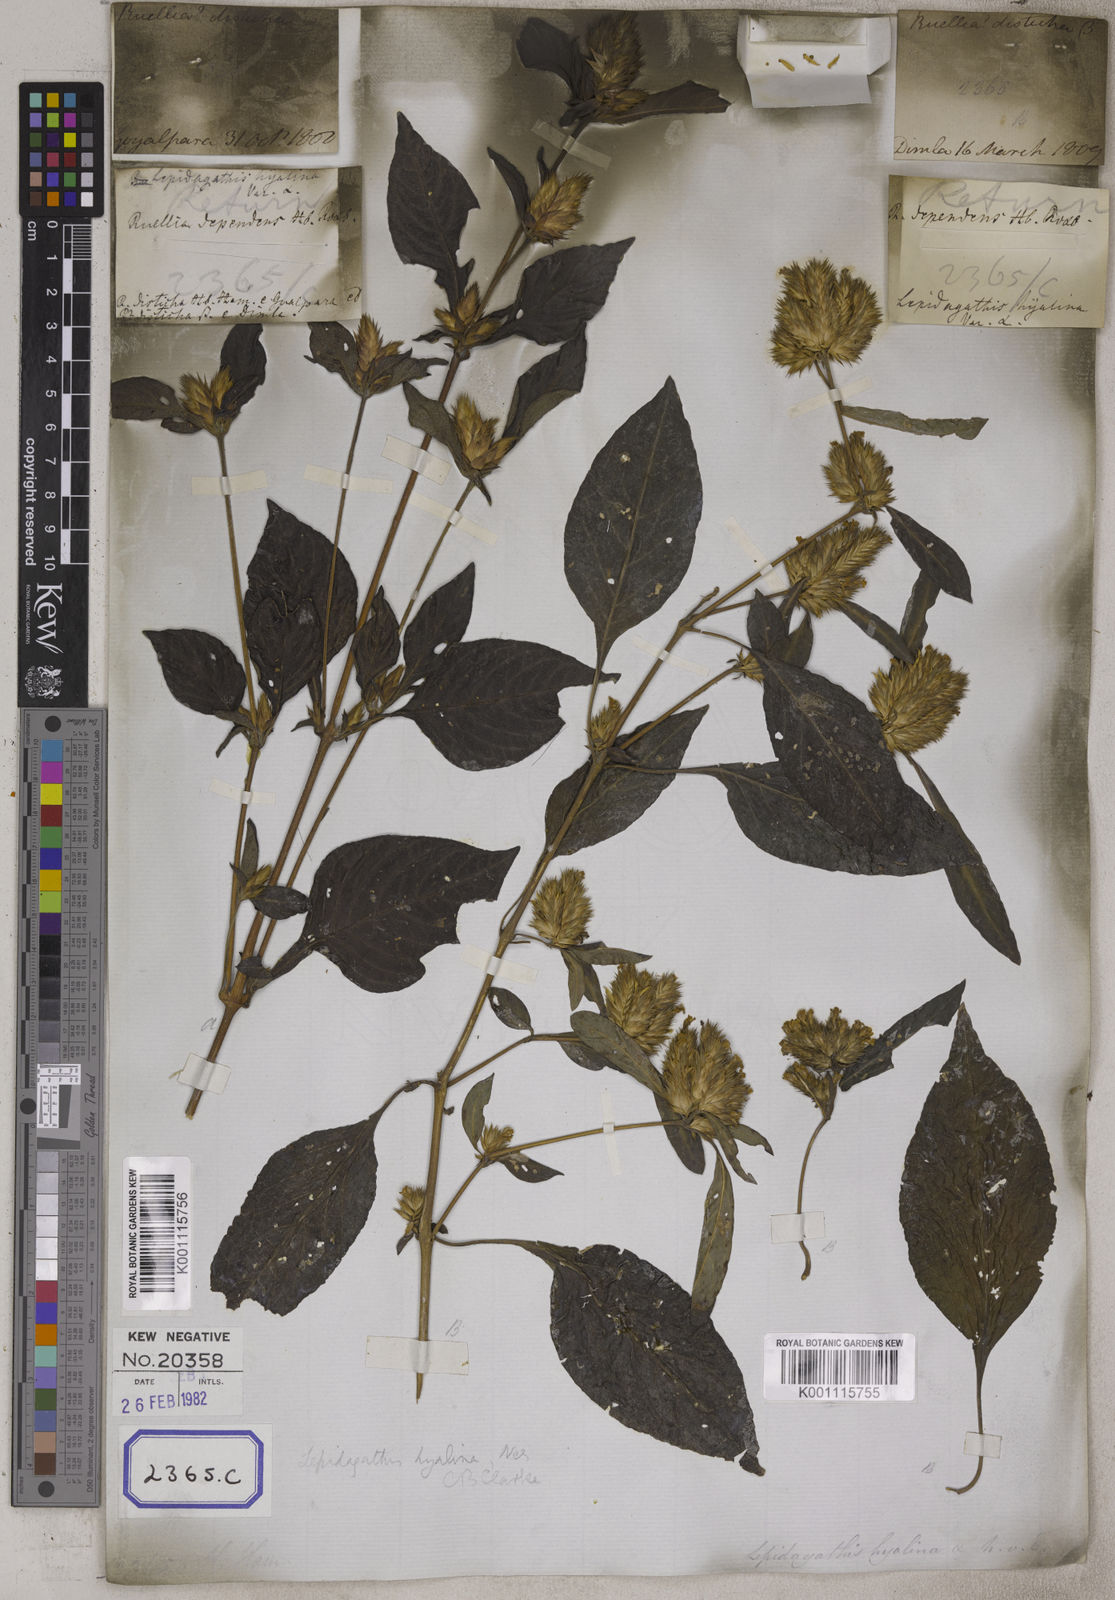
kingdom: Plantae
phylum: Tracheophyta
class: Magnoliopsida
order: Lamiales
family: Acanthaceae
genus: Lepidagathis
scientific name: Lepidagathis incurva
